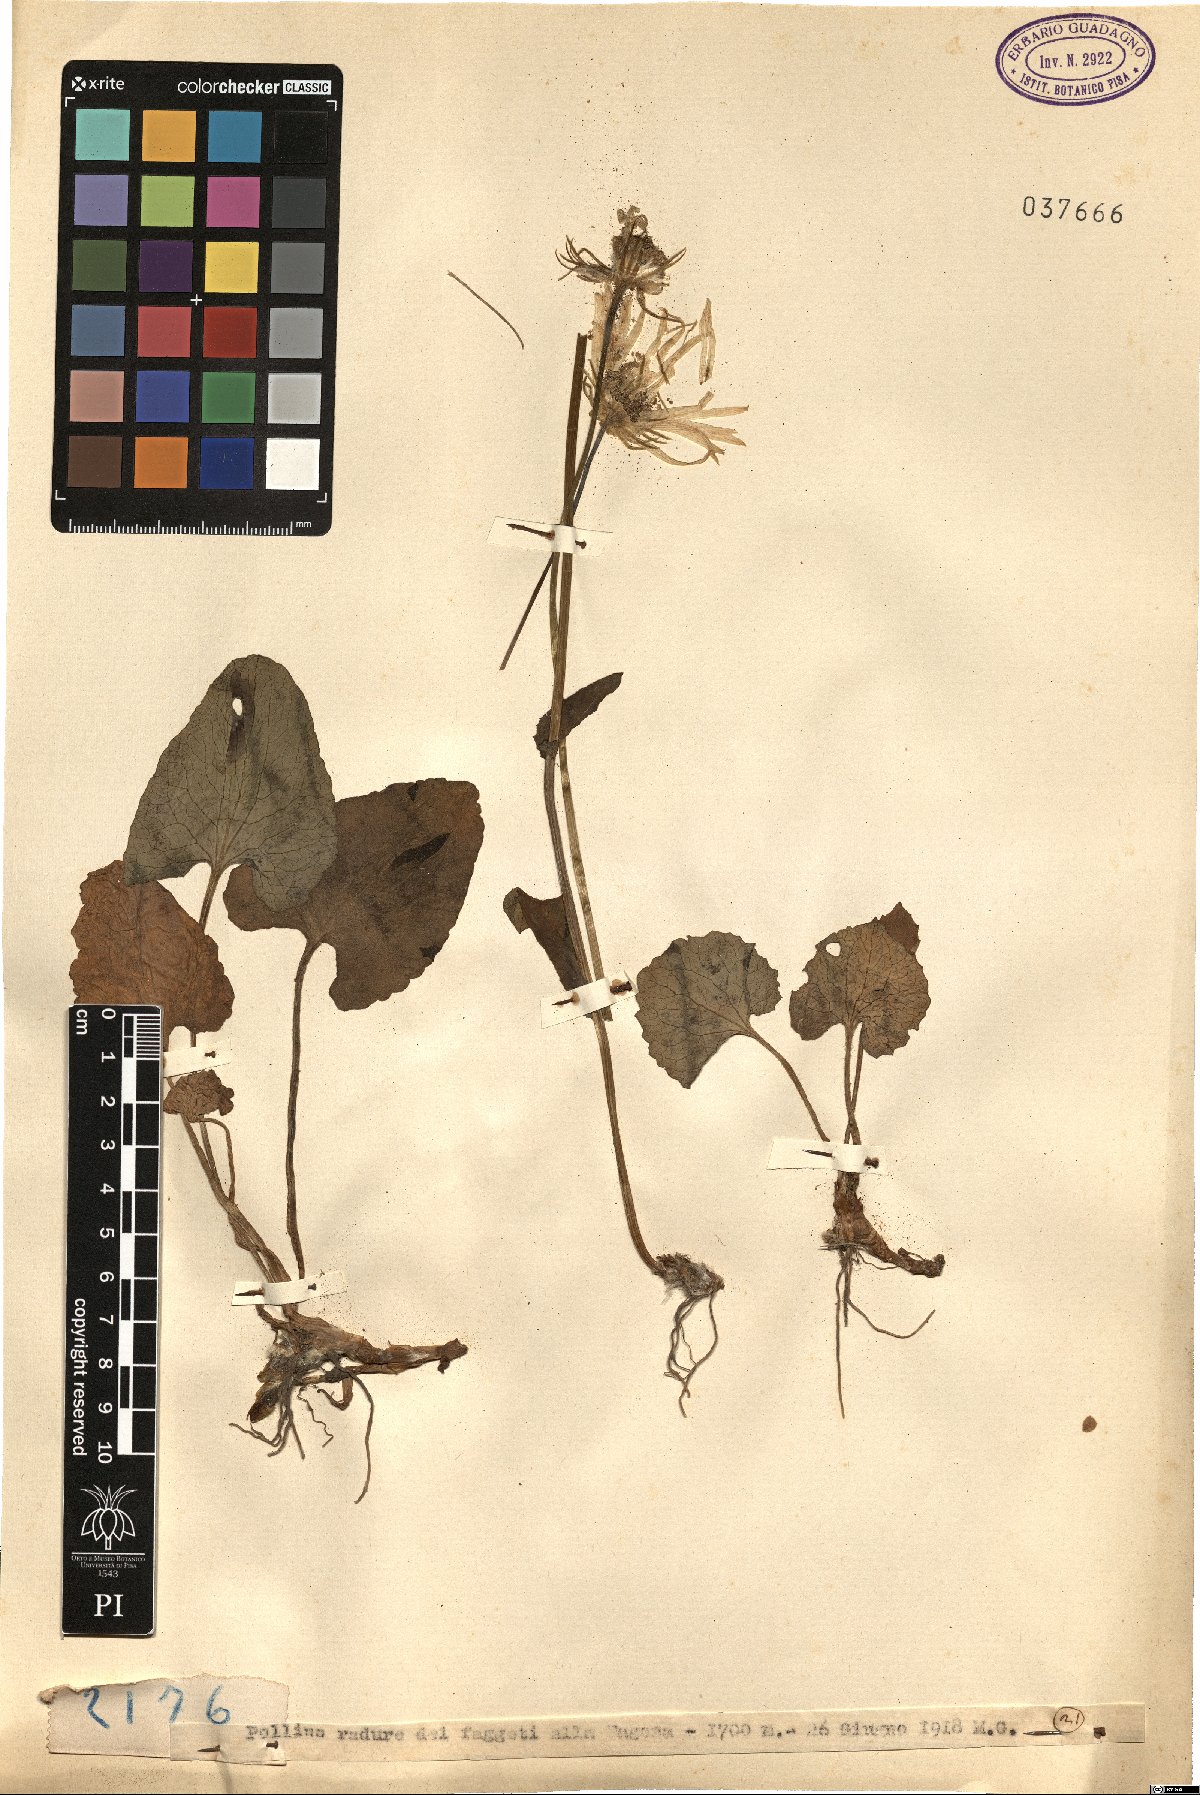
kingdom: Plantae
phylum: Tracheophyta
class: Magnoliopsida
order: Asterales
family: Asteraceae
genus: Doronicum
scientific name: Doronicum
